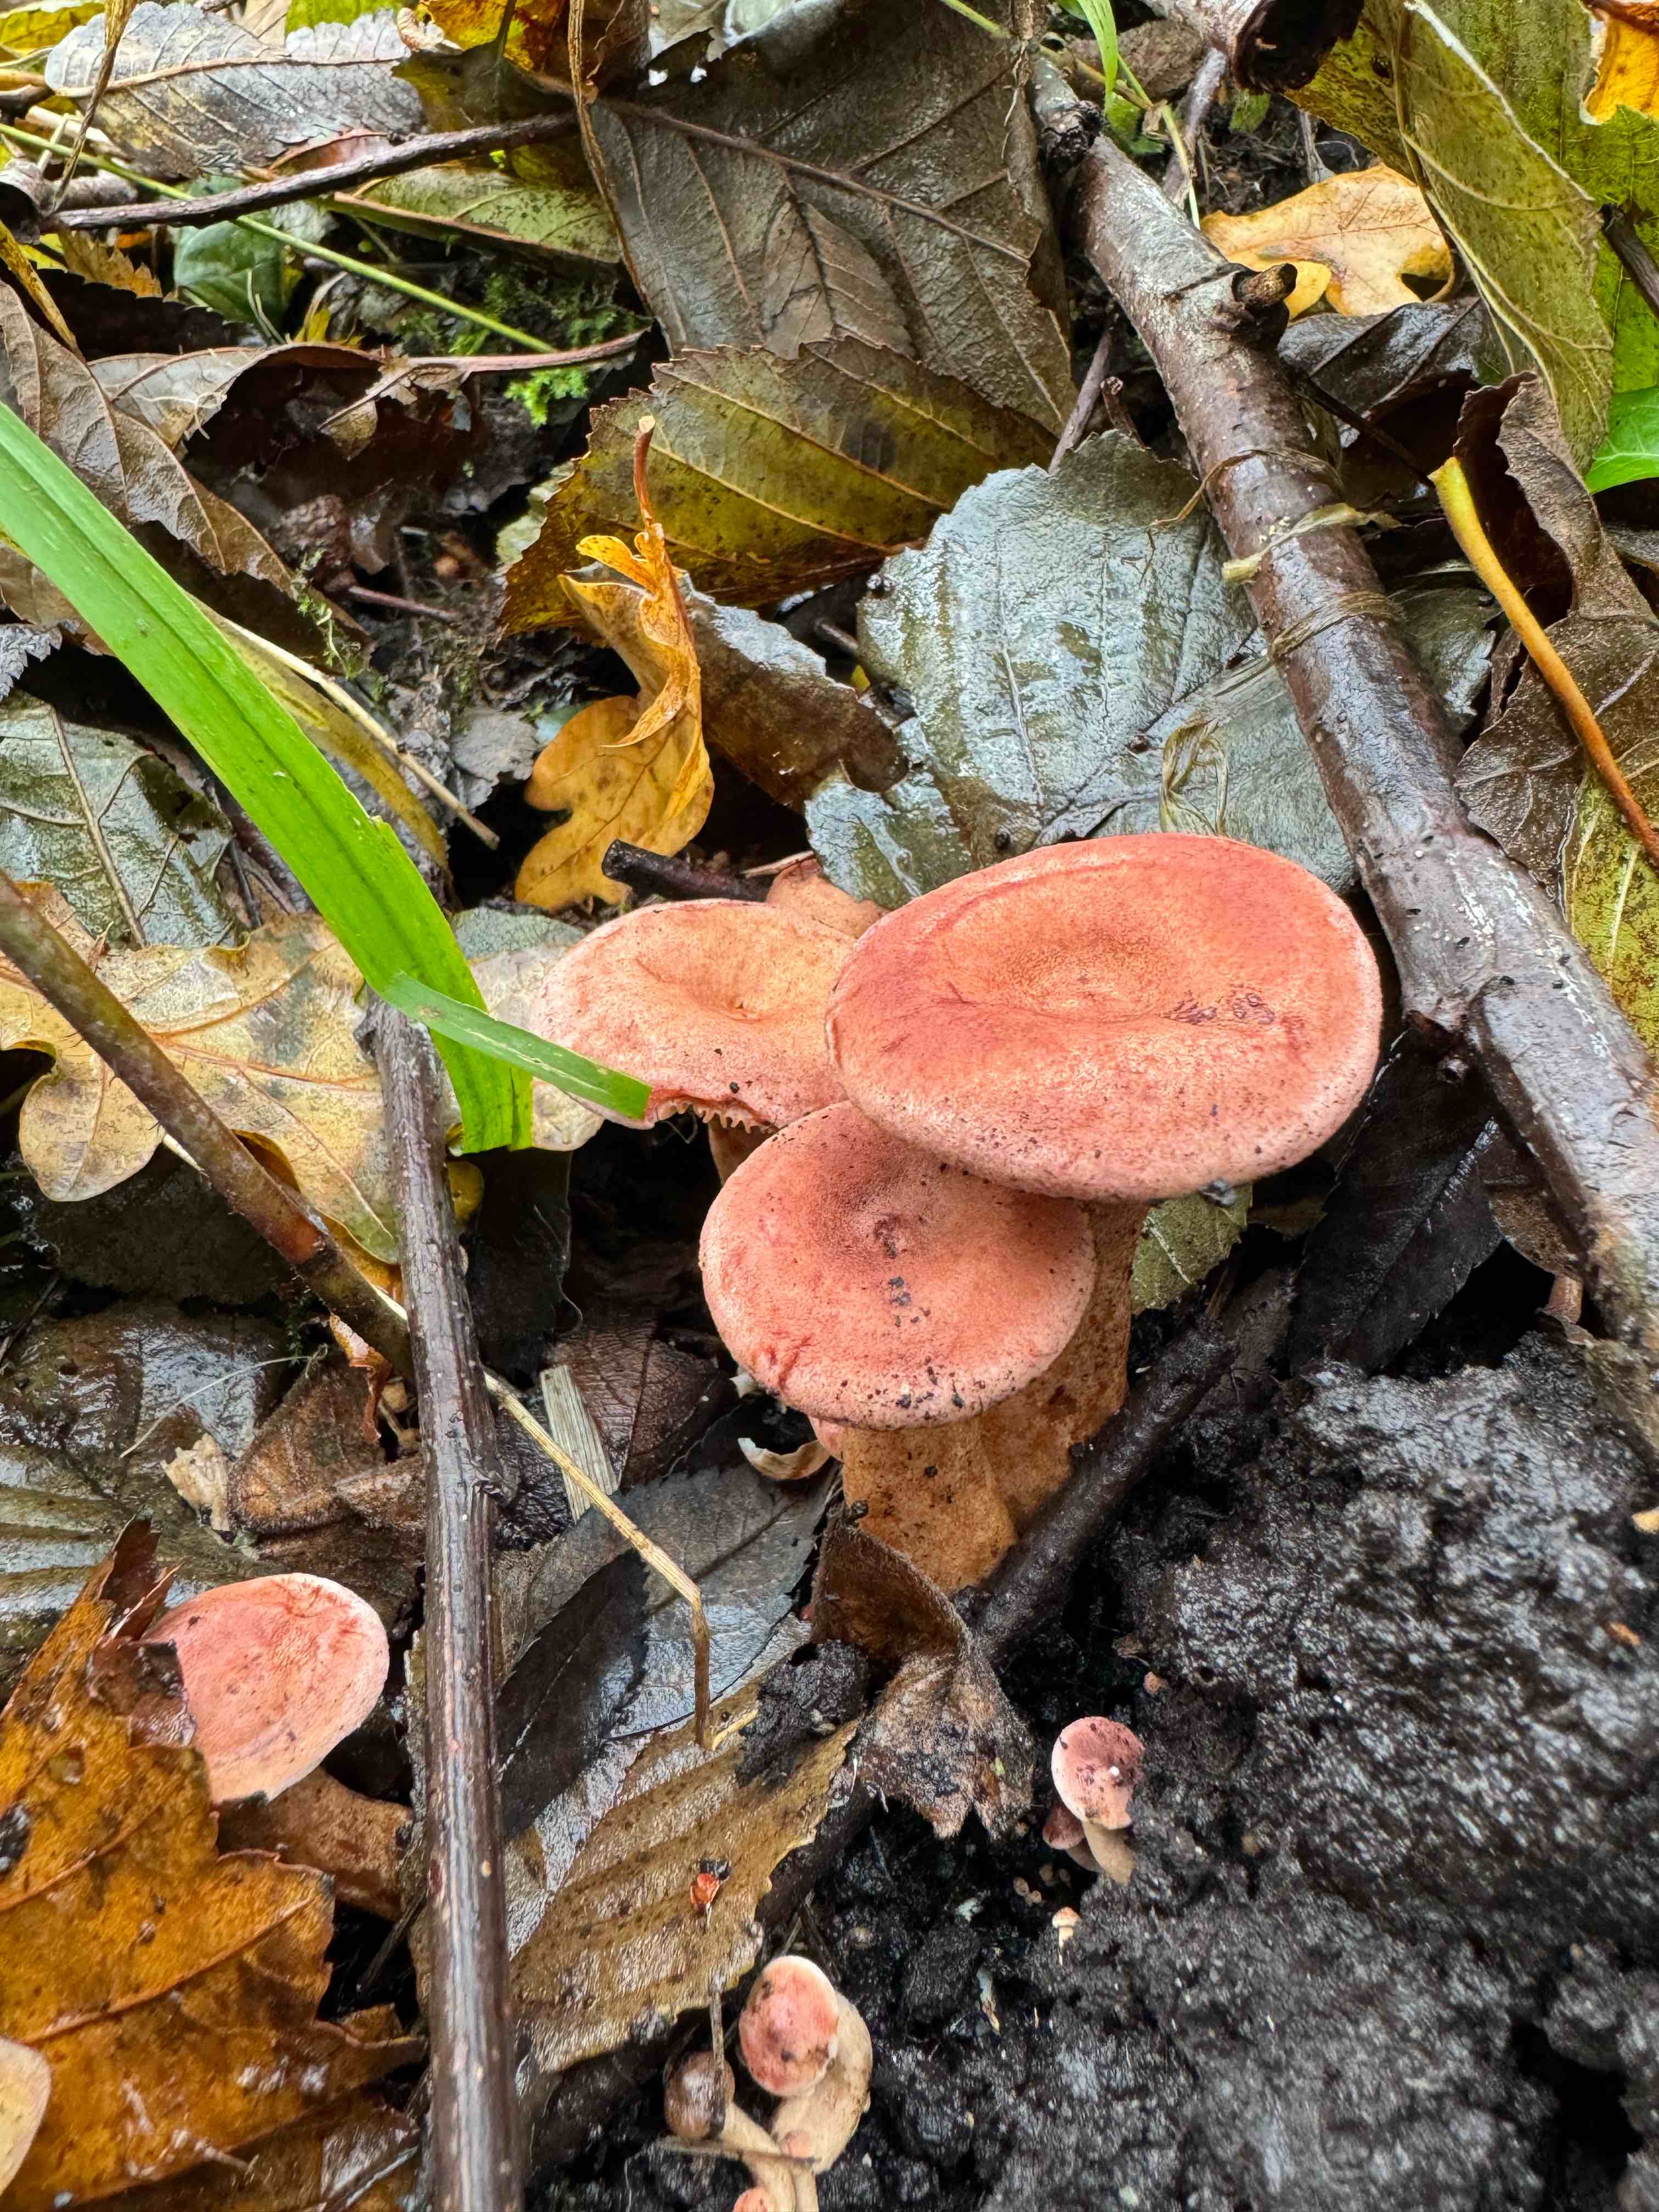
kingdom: Fungi
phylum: Basidiomycota
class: Agaricomycetes
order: Russulales
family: Russulaceae
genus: Lactarius
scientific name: Lactarius lilacinus
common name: lilla mælkehat
